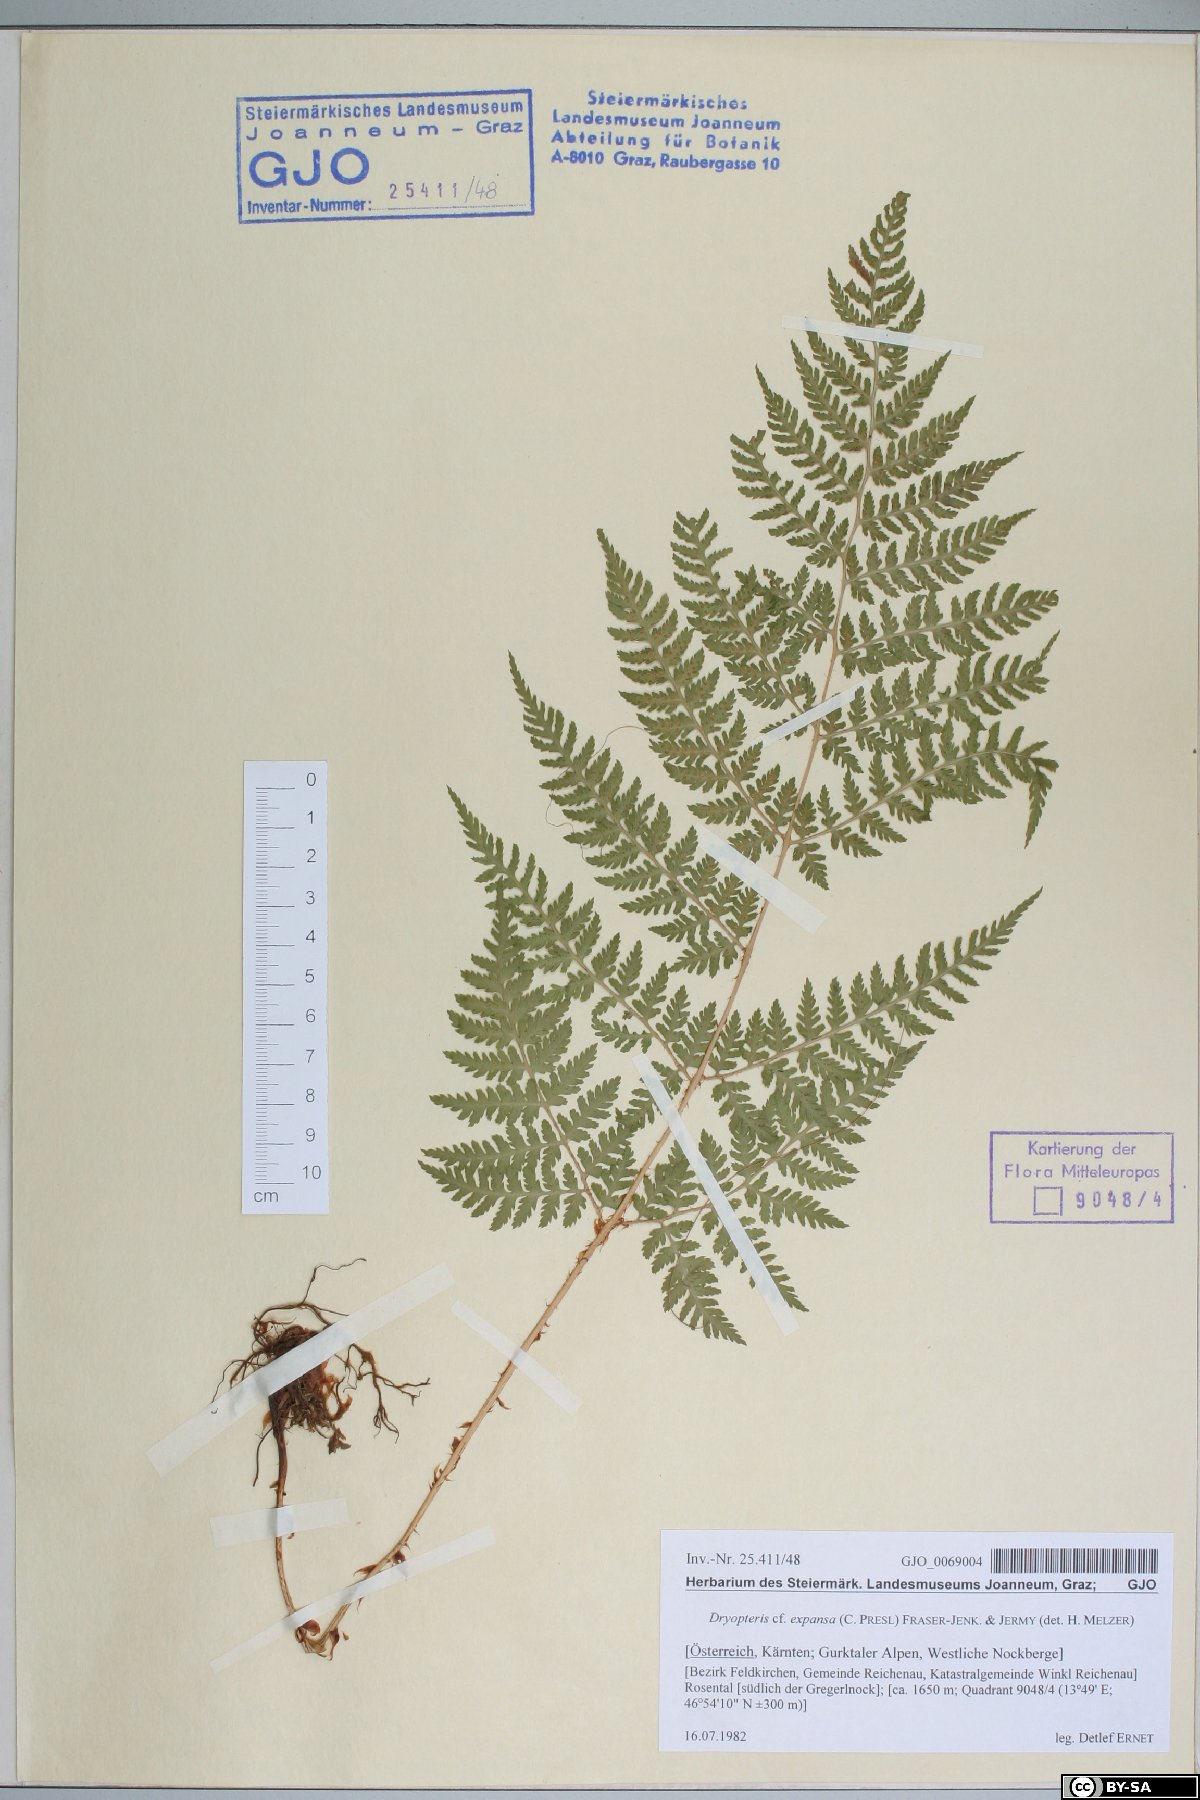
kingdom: Plantae
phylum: Tracheophyta
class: Polypodiopsida
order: Polypodiales
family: Dryopteridaceae
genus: Dryopteris
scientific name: Dryopteris expansa
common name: Northern buckler fern
